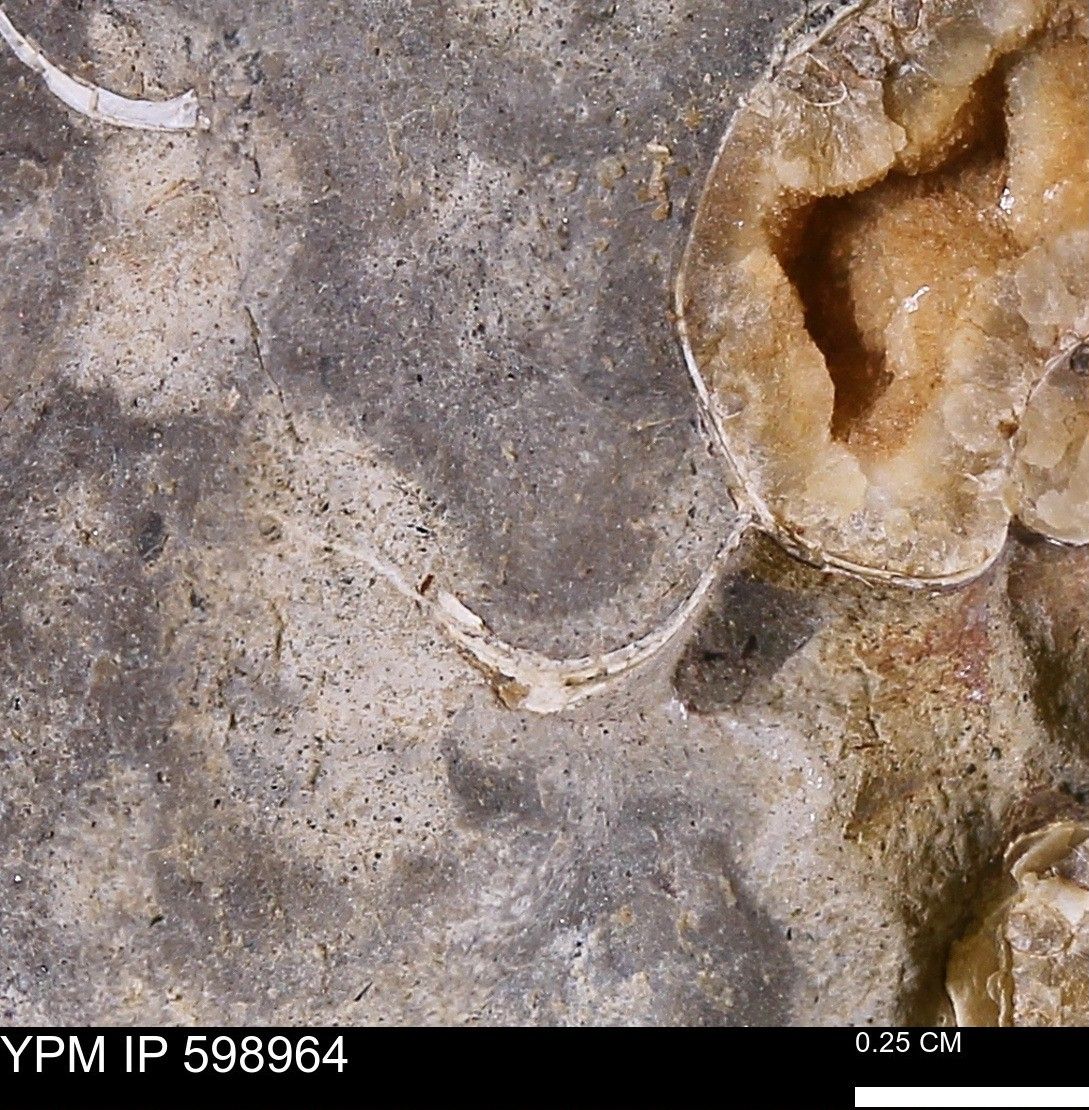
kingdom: Animalia
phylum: Mollusca
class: Cephalopoda
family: Scaphitidae
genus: Hoploscaphites
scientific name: Hoploscaphites
